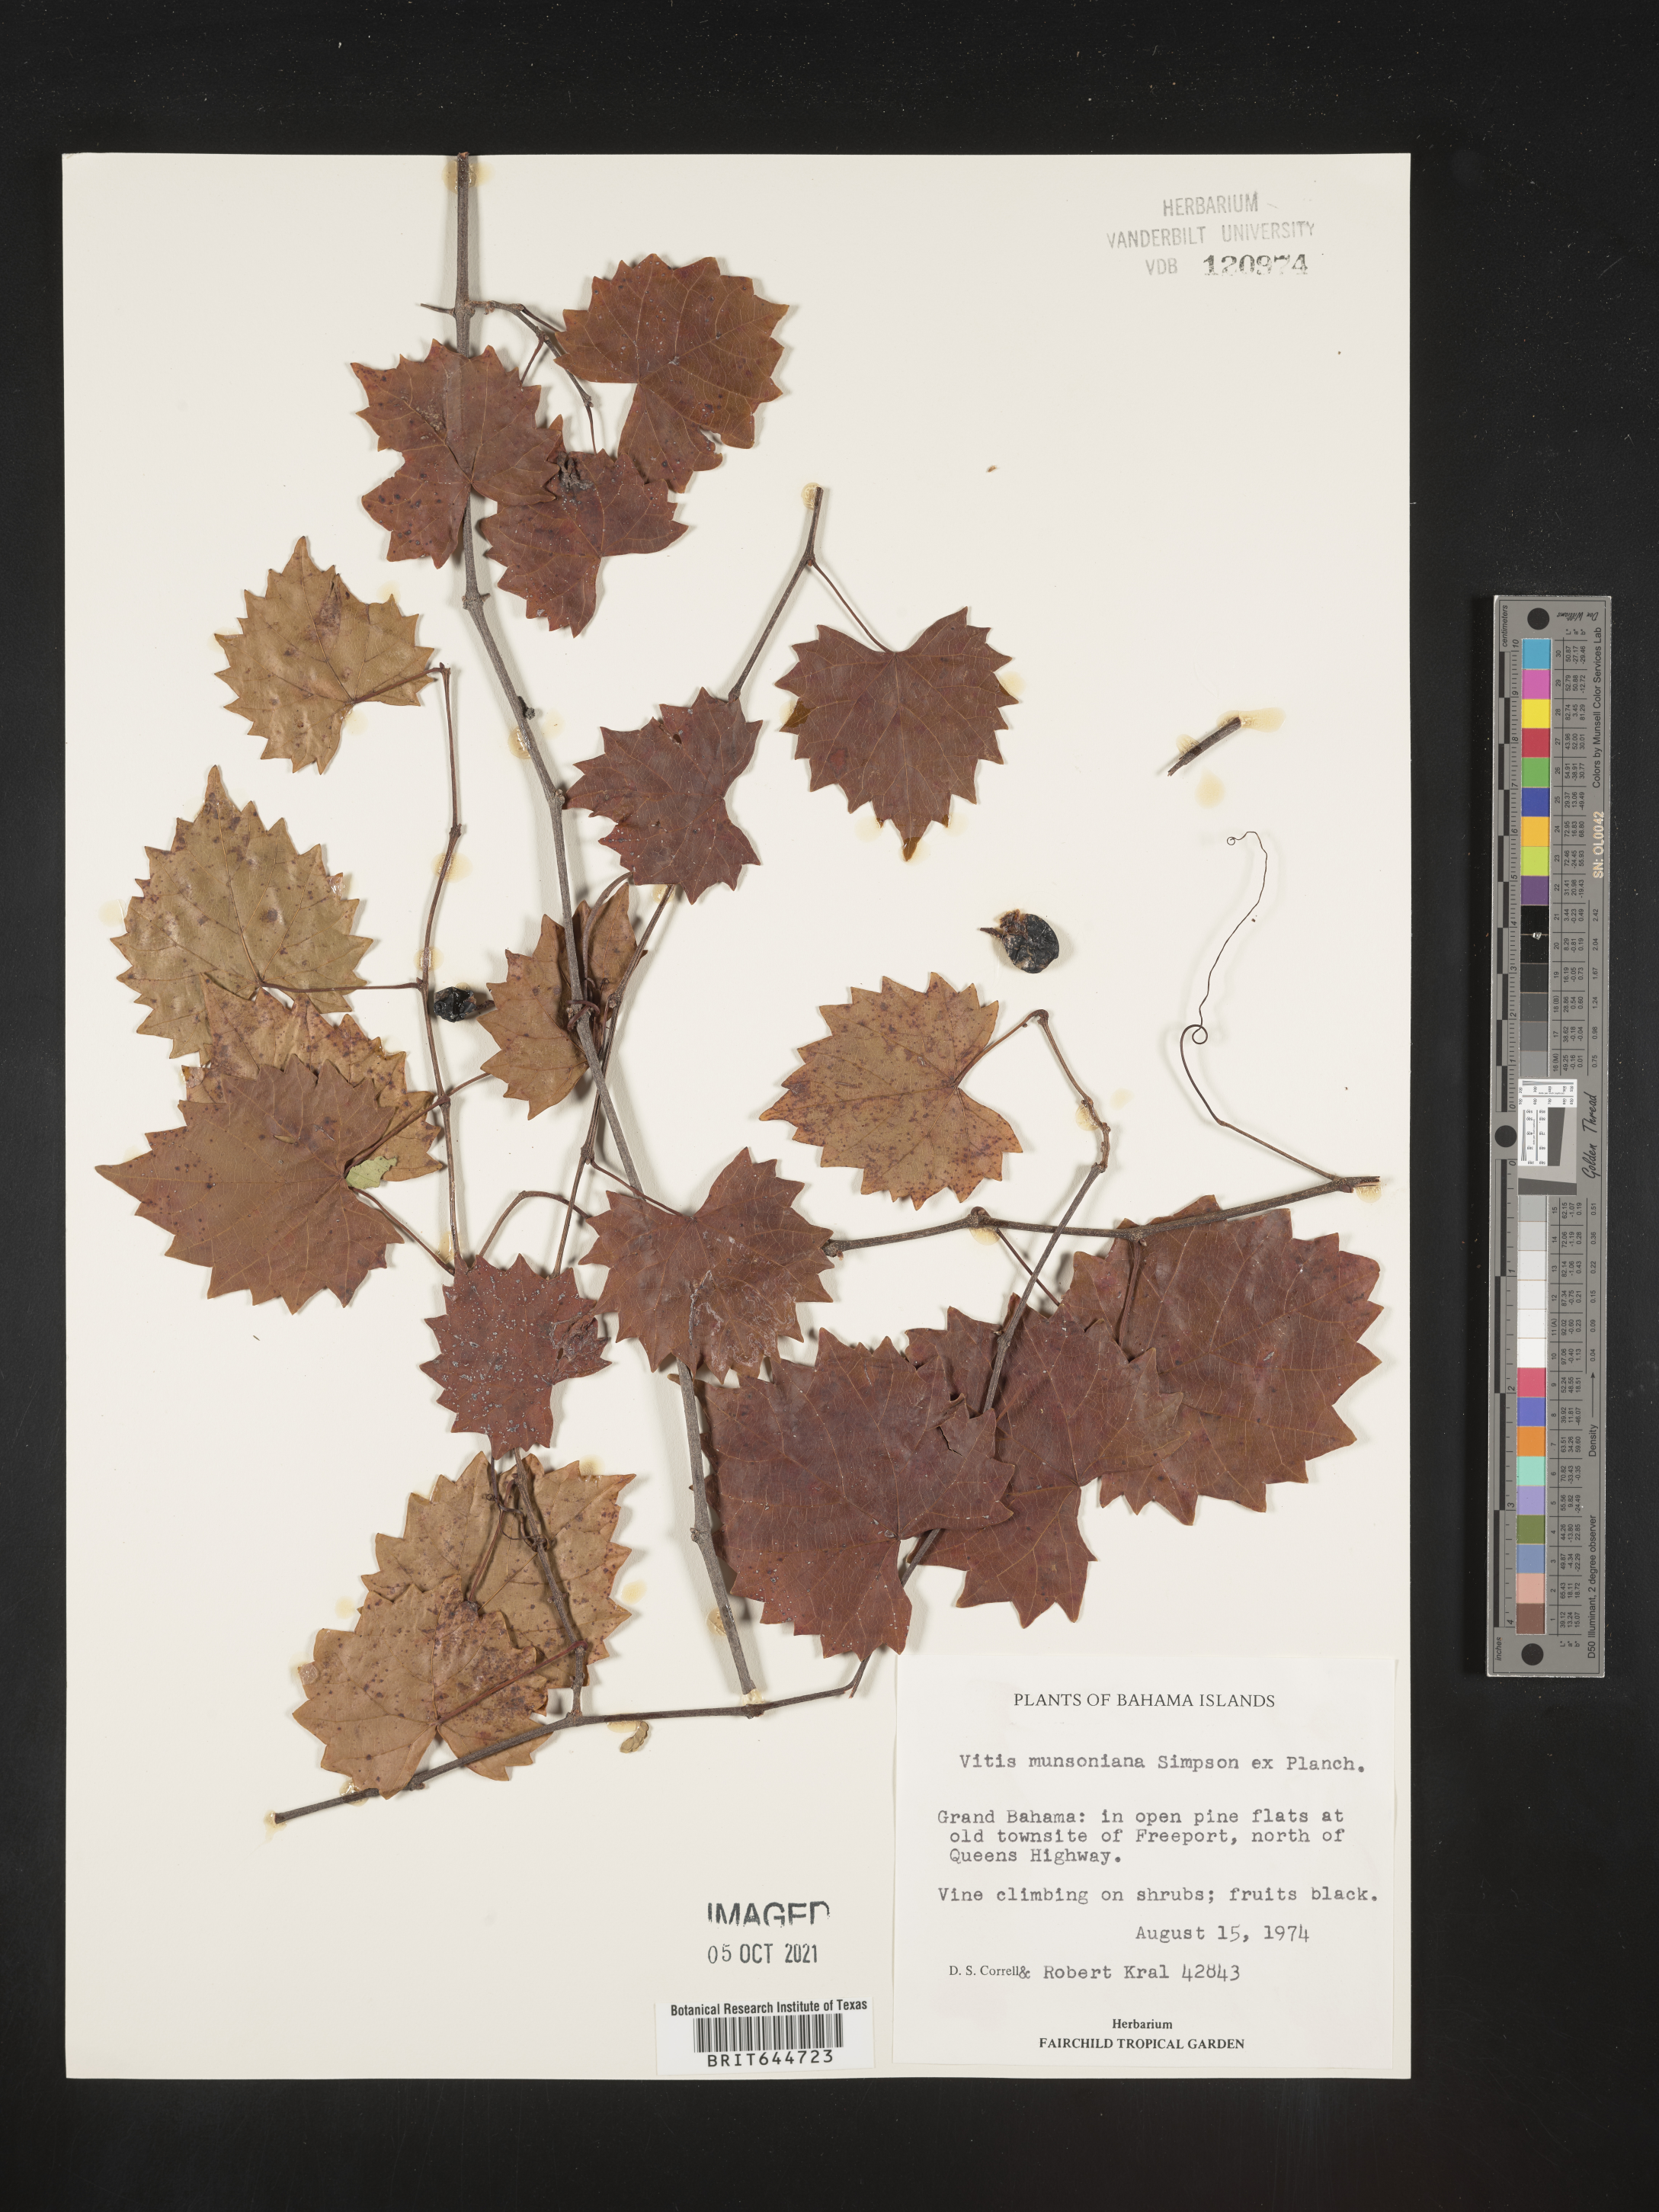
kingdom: Plantae
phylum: Tracheophyta
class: Magnoliopsida
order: Vitales
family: Vitaceae
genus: Vitis
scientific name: Vitis
